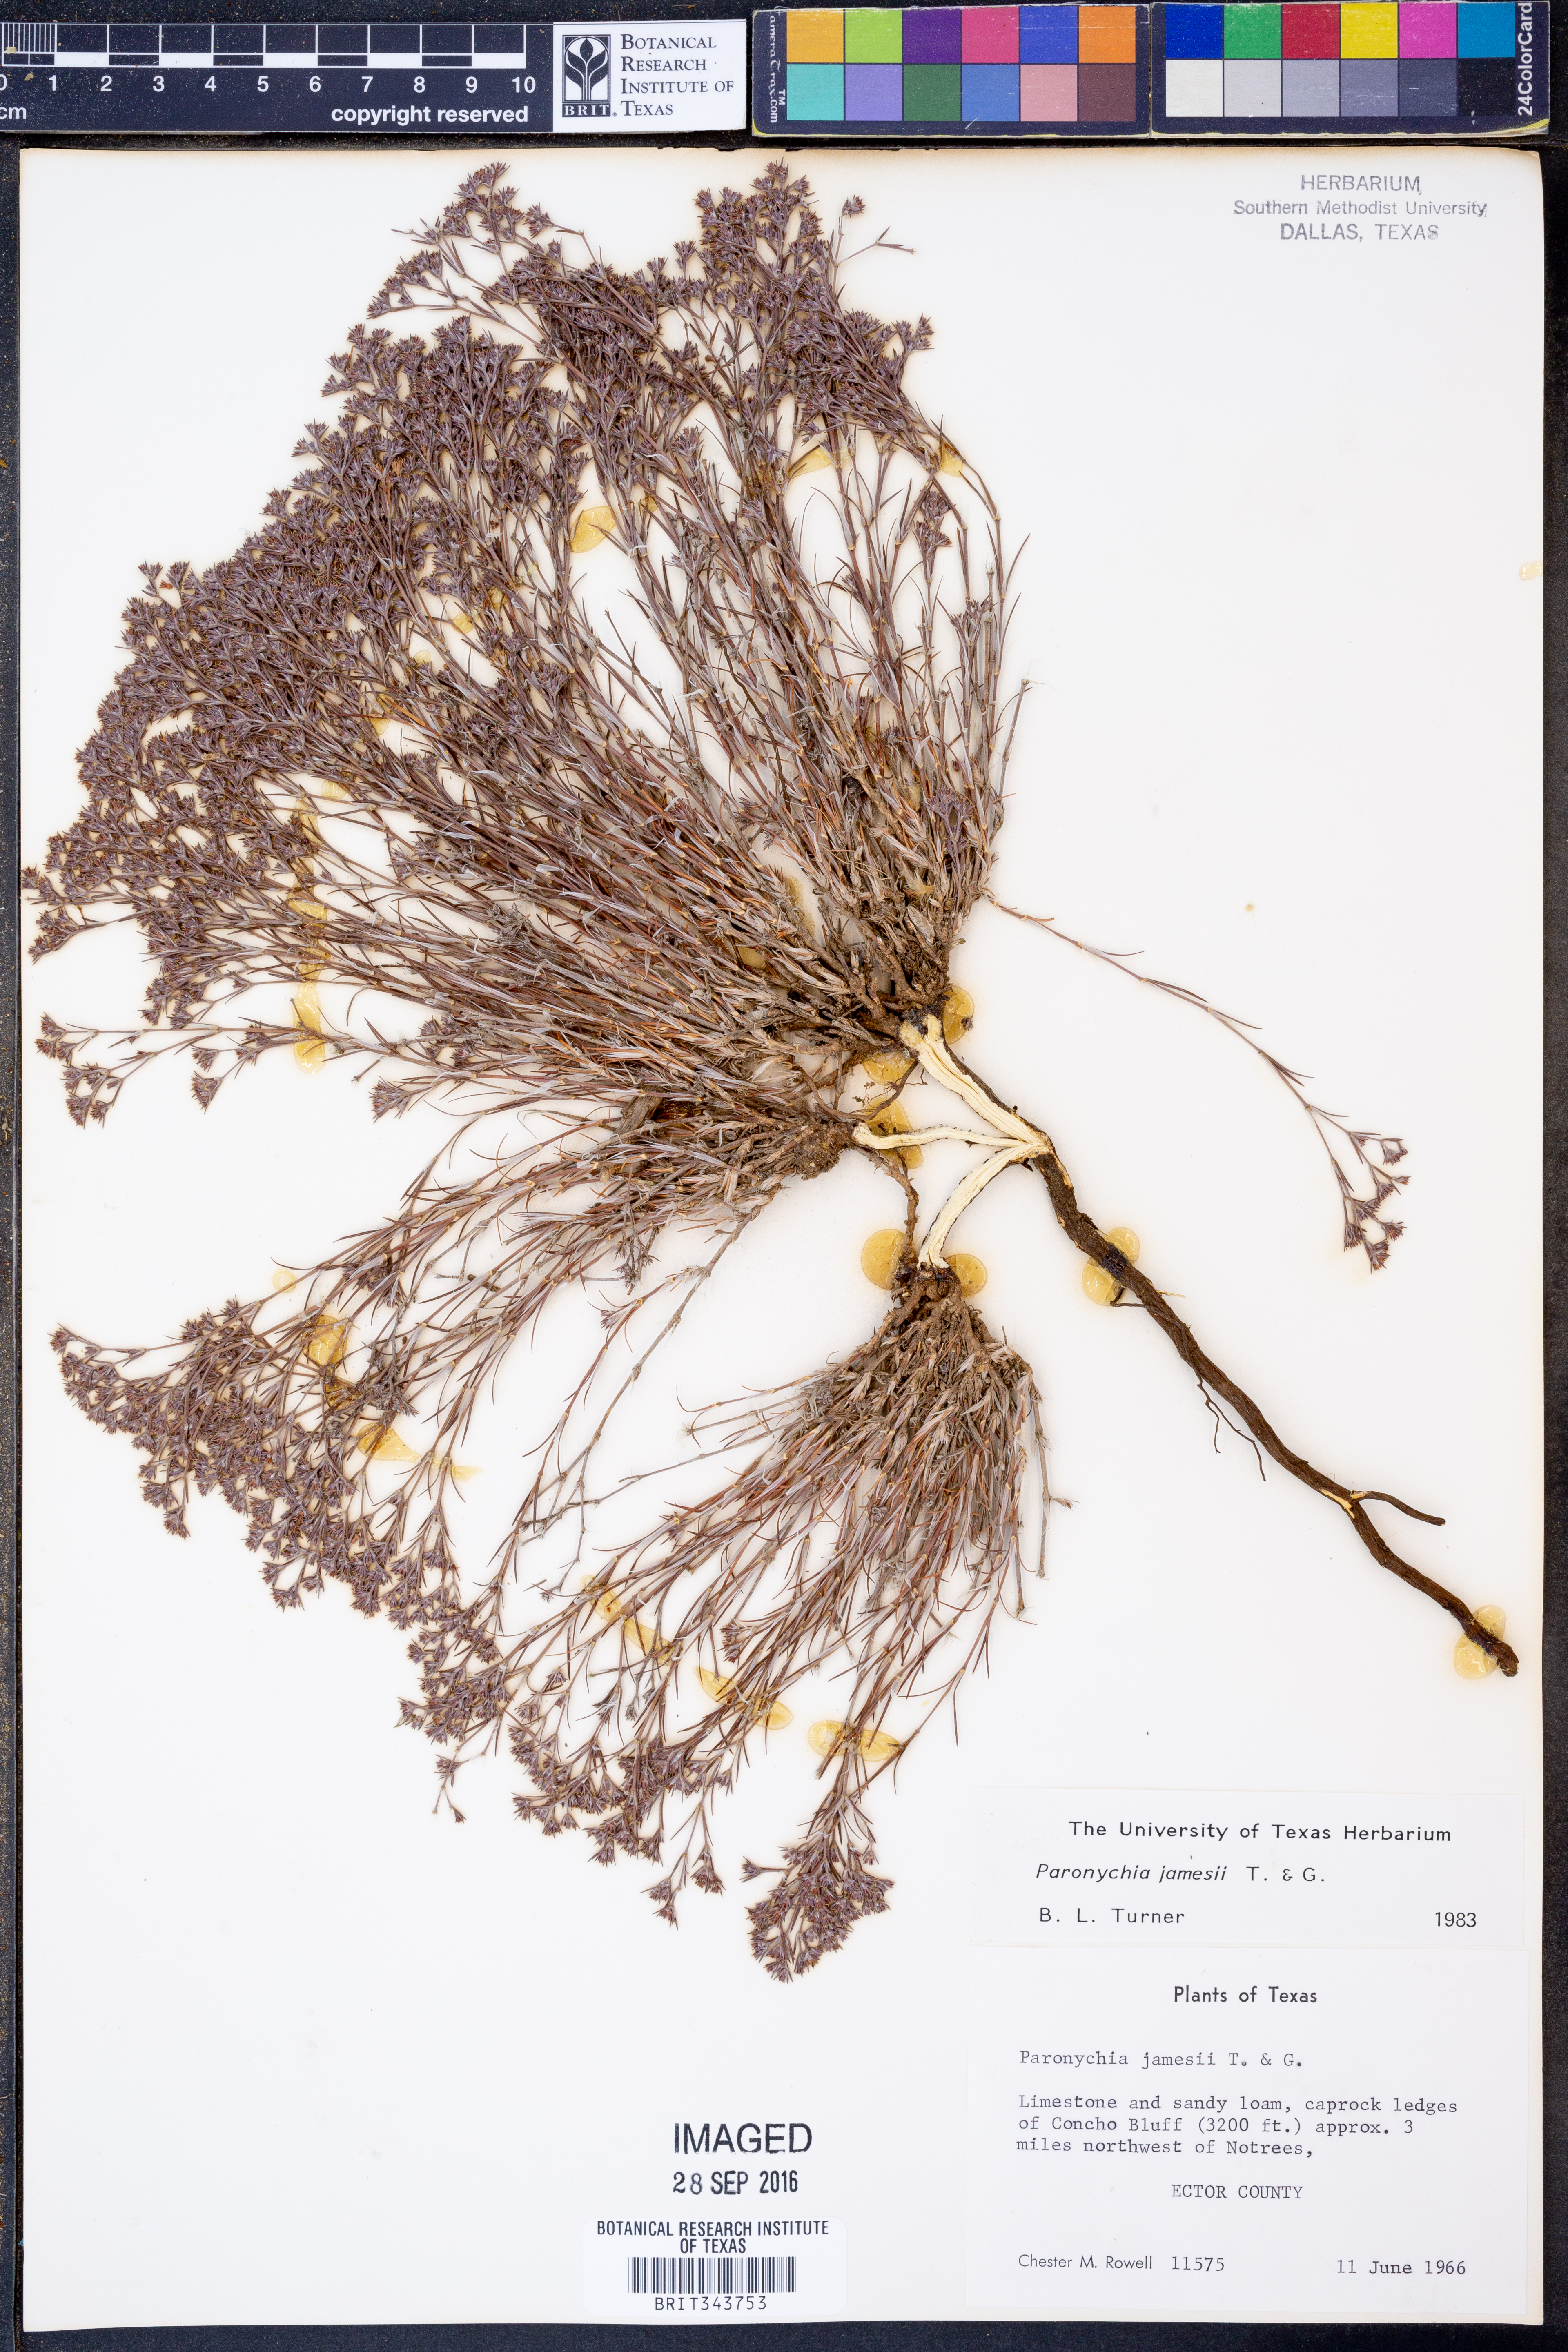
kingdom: Plantae
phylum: Tracheophyta
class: Magnoliopsida
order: Caryophyllales
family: Caryophyllaceae
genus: Paronychia
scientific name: Paronychia jamesii
